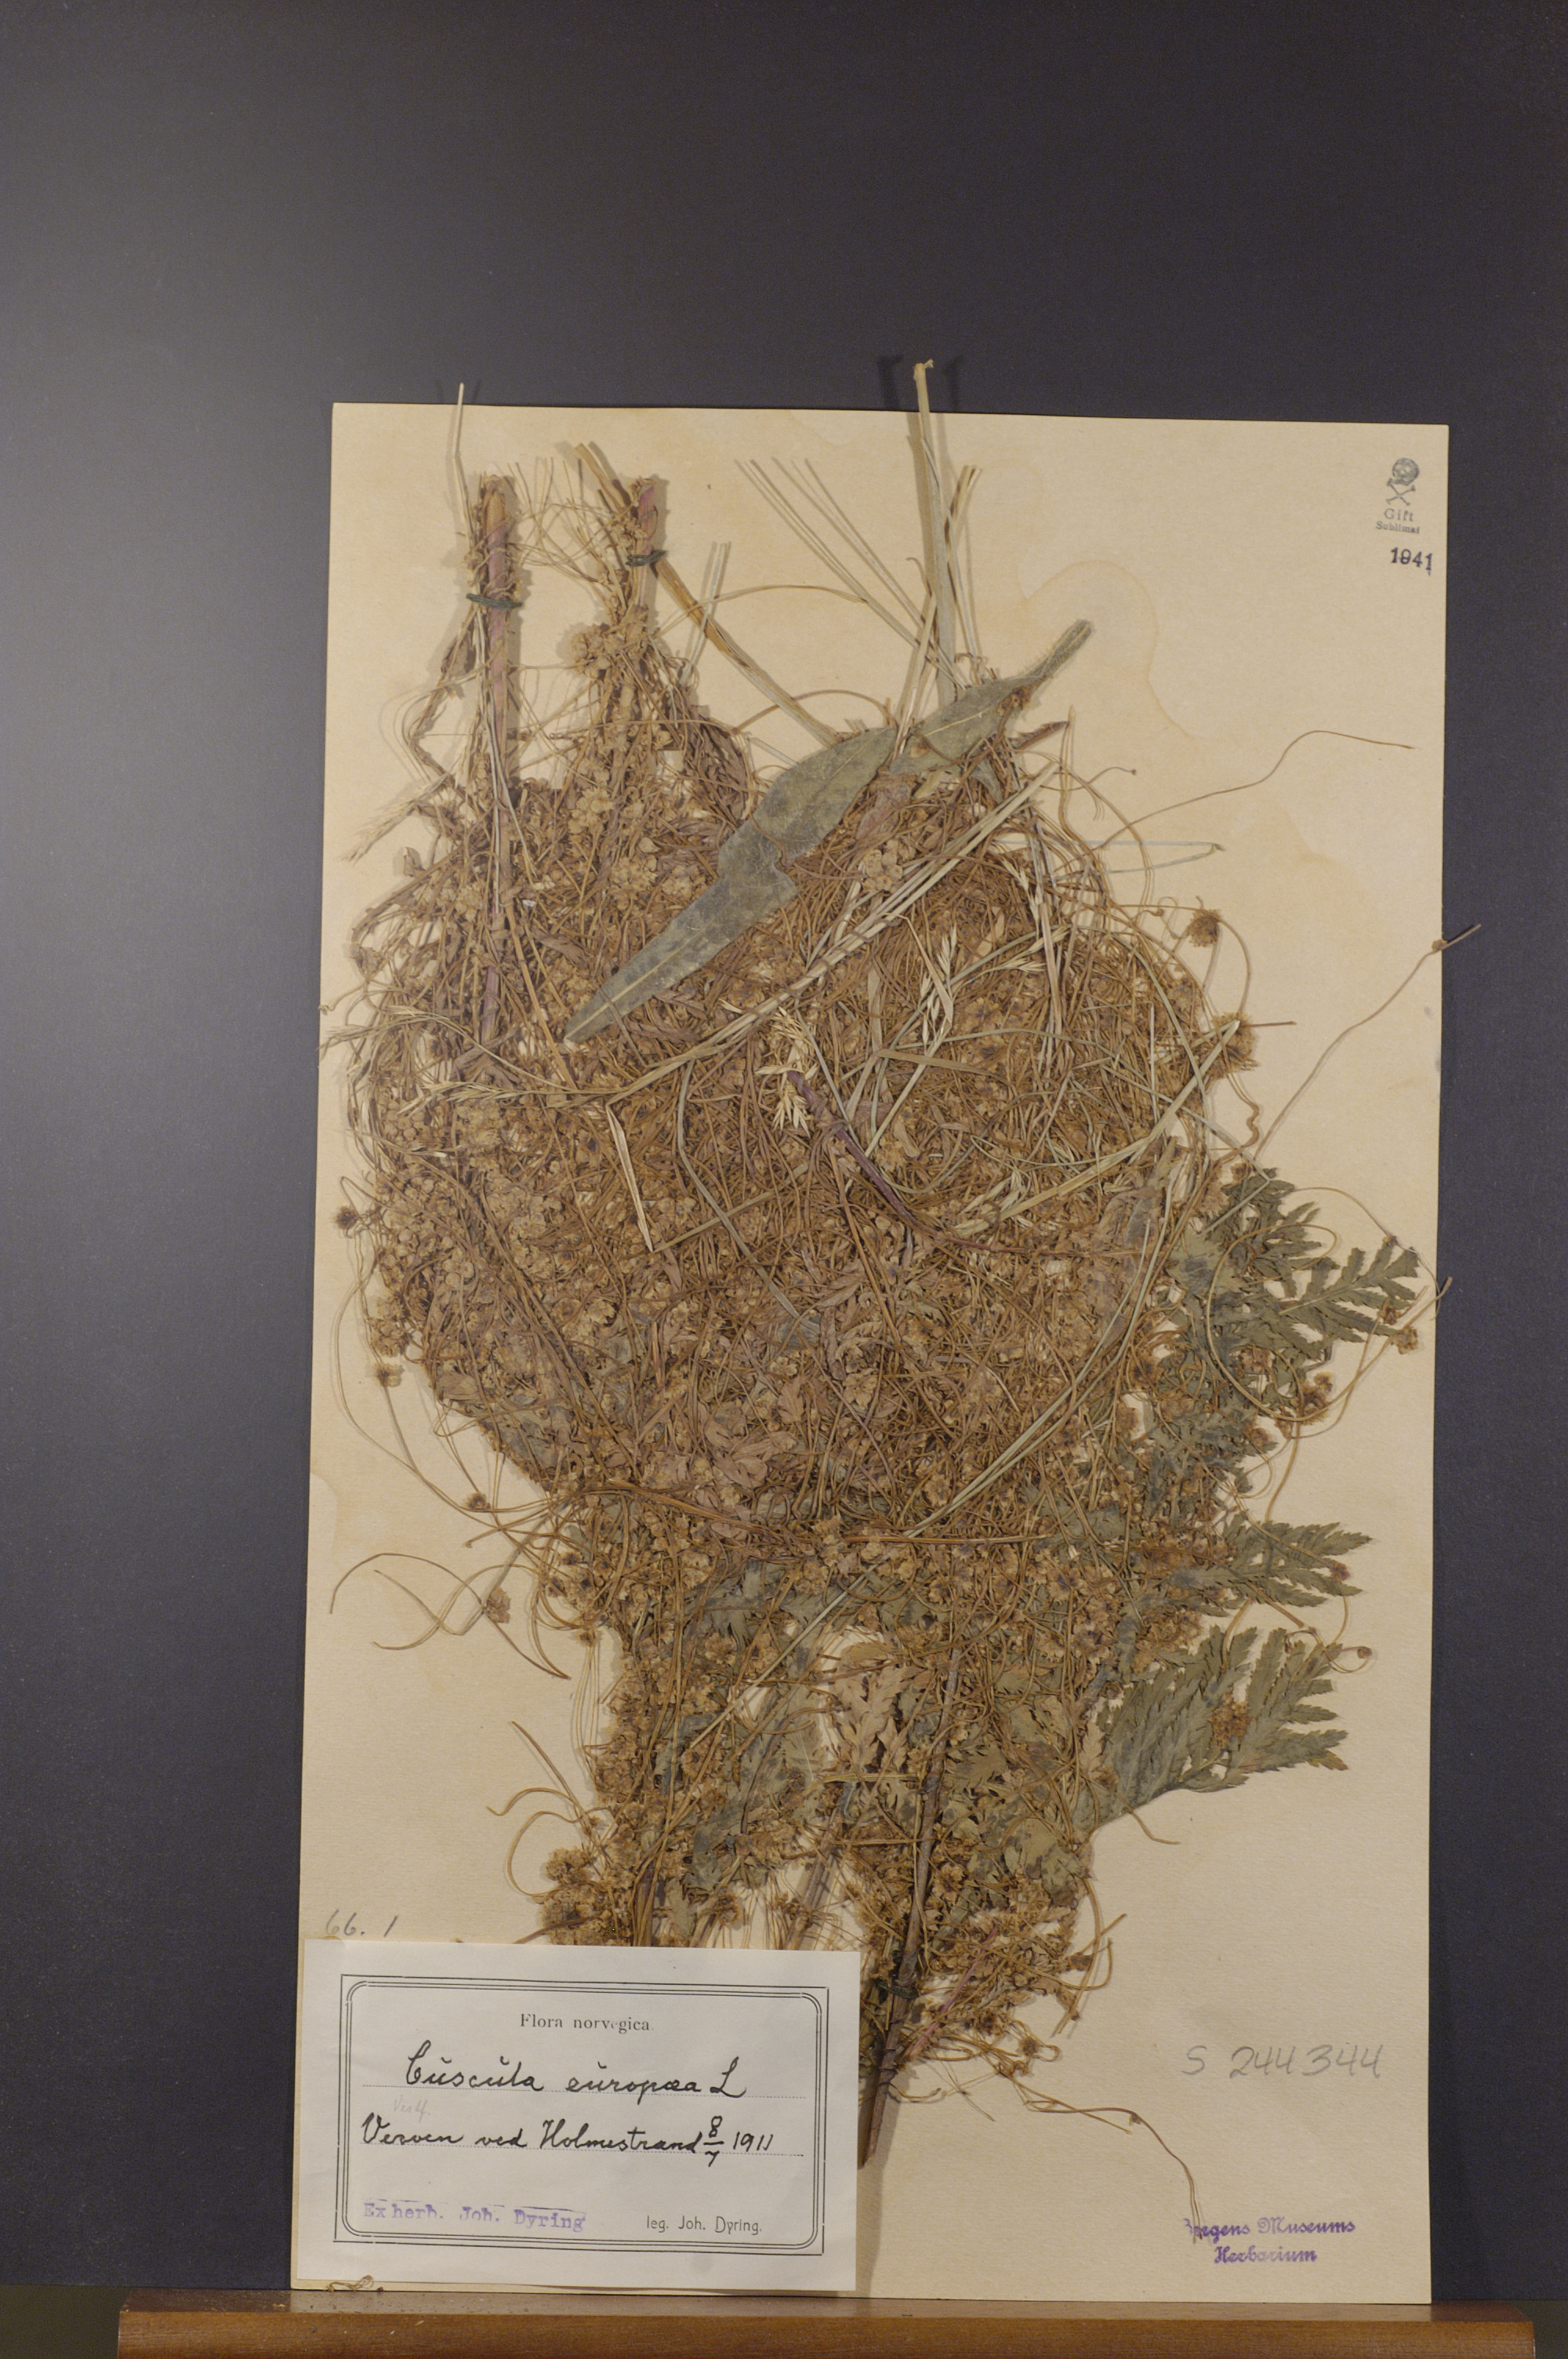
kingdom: Plantae
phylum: Tracheophyta
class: Magnoliopsida
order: Solanales
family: Convolvulaceae
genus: Cuscuta
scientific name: Cuscuta europaea
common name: Greater dodder
